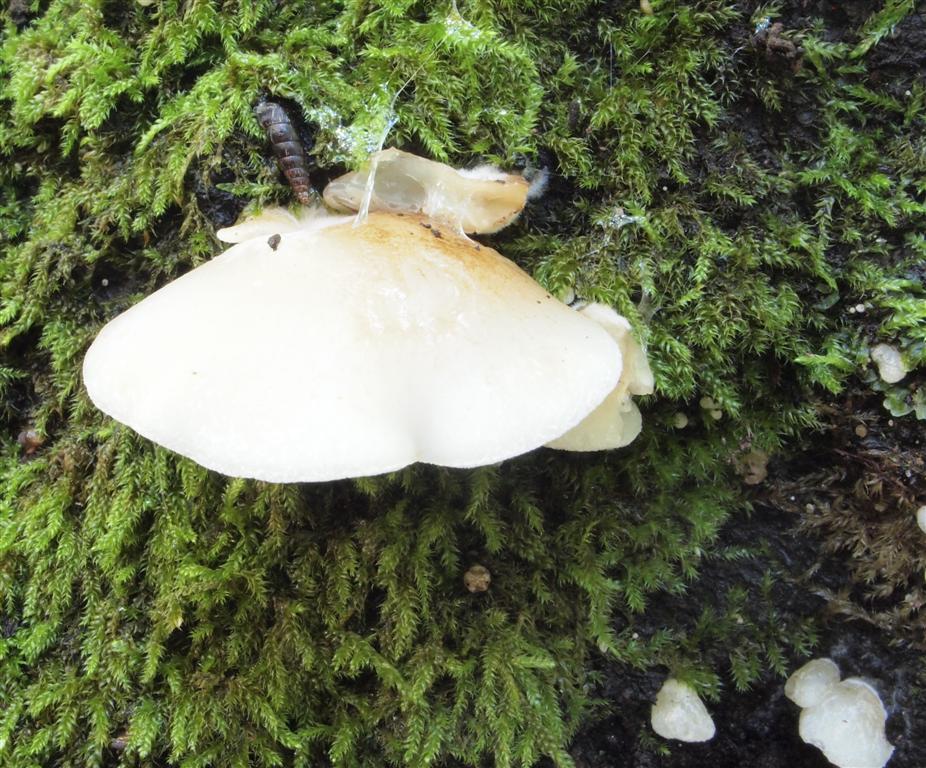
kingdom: Fungi
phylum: Basidiomycota
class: Agaricomycetes
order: Agaricales
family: Crepidotaceae
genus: Crepidotus
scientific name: Crepidotus mollis
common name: blød muslingesvamp
